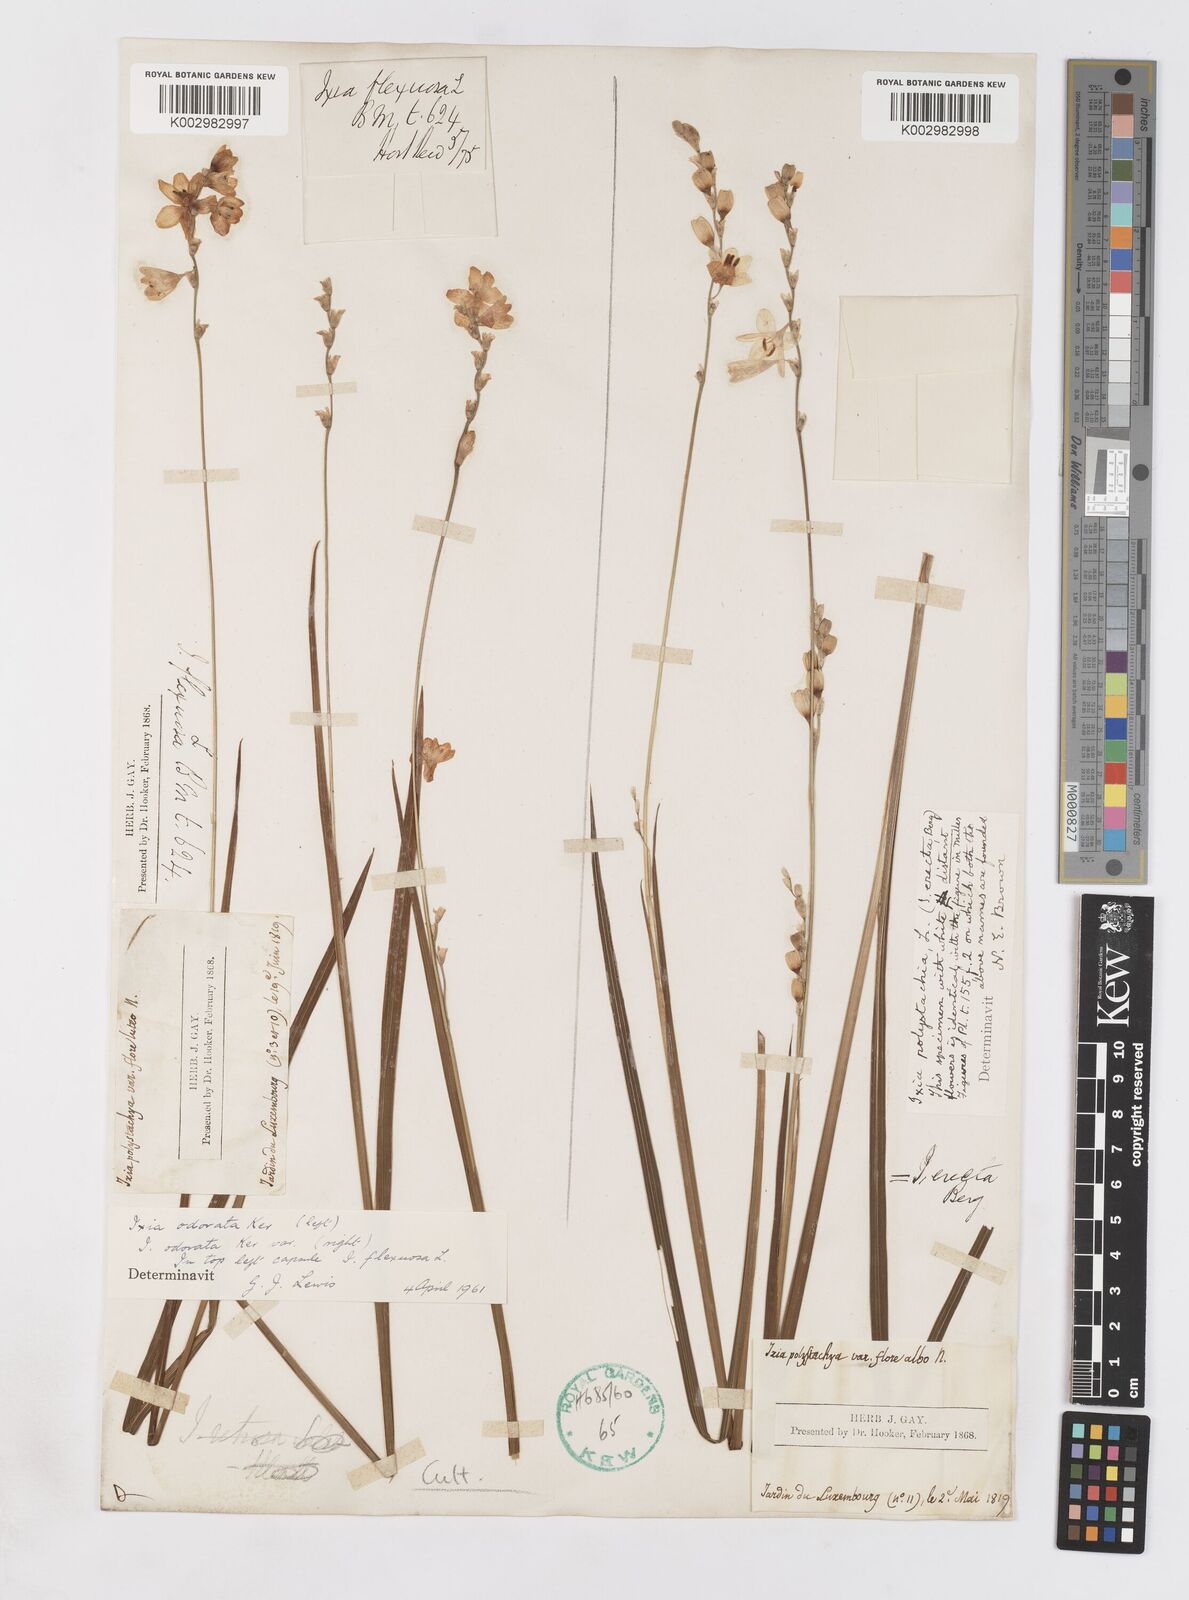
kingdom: Plantae
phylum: Tracheophyta
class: Liliopsida
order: Asparagales
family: Iridaceae
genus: Ixia
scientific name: Ixia odorata
